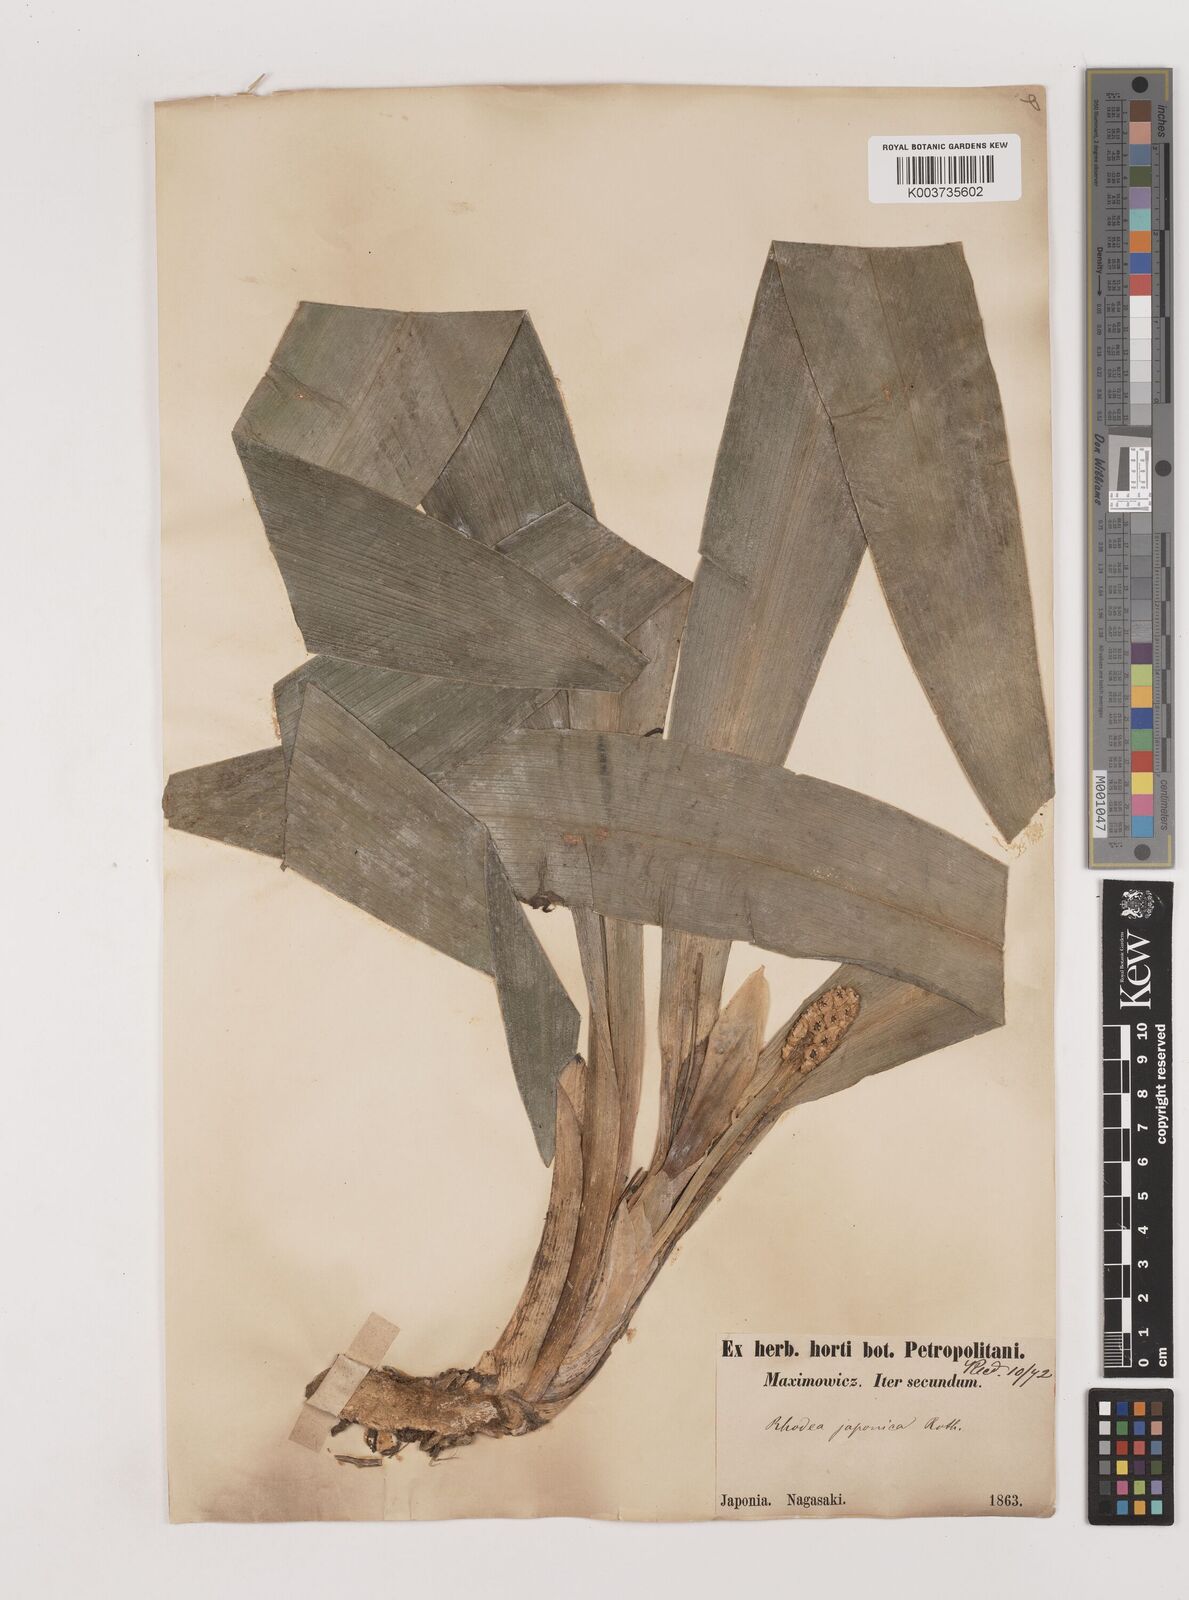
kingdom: Plantae
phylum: Tracheophyta
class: Liliopsida
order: Asparagales
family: Asparagaceae
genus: Rohdea
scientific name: Rohdea japonica
